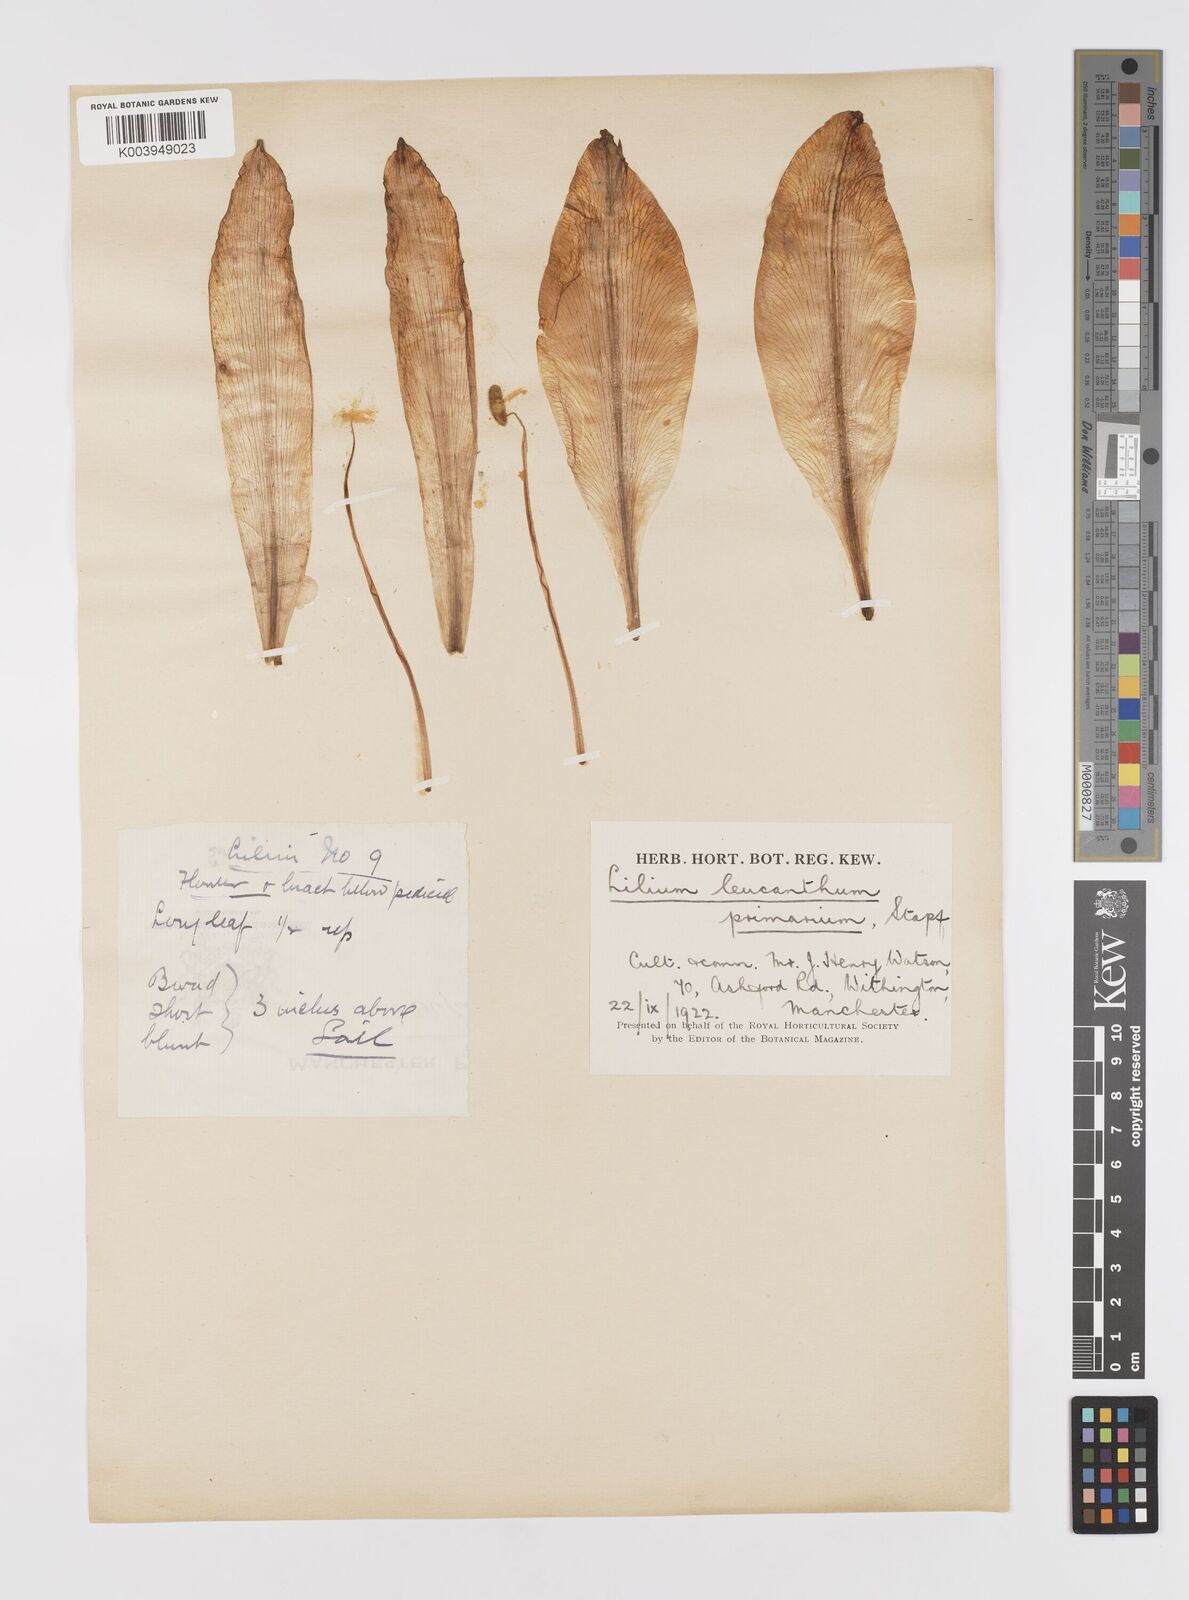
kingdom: Plantae
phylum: Tracheophyta
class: Liliopsida
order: Liliales
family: Liliaceae
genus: Lilium
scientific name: Lilium sargentiae
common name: Sargent lily
